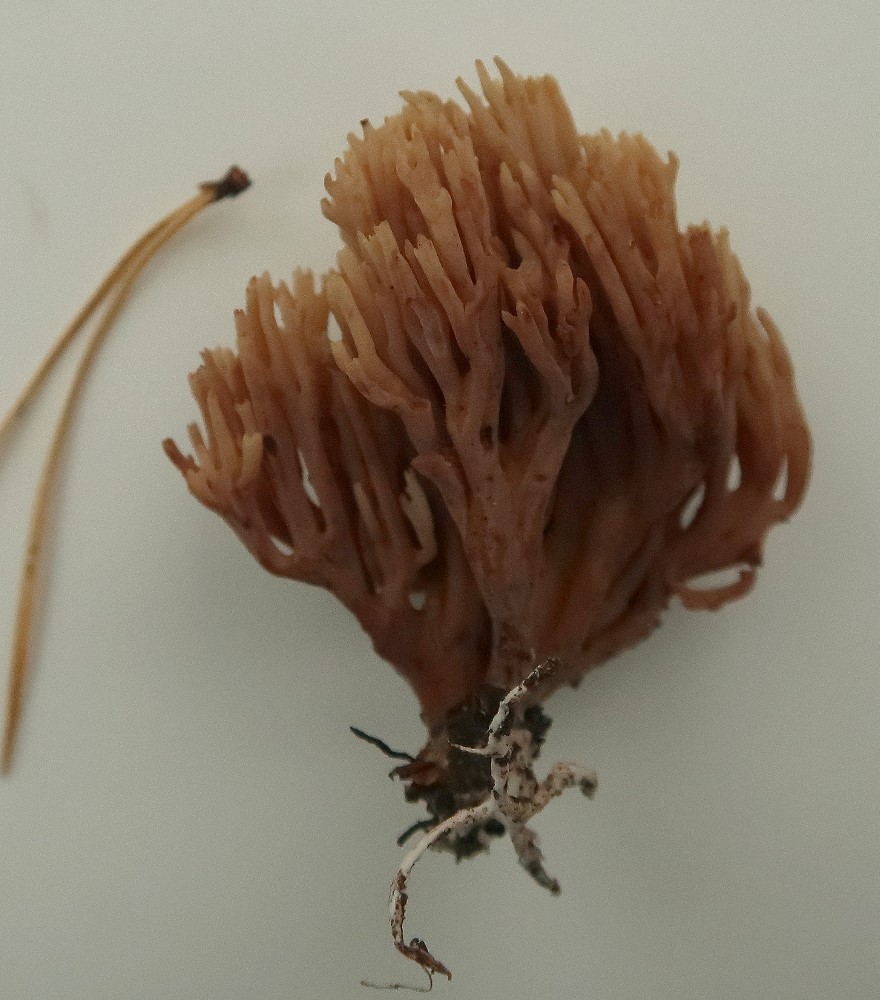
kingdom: Fungi
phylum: Basidiomycota
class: Agaricomycetes
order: Gomphales
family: Gomphaceae
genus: Ramaria
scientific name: Ramaria stricta
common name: rank koralsvamp
